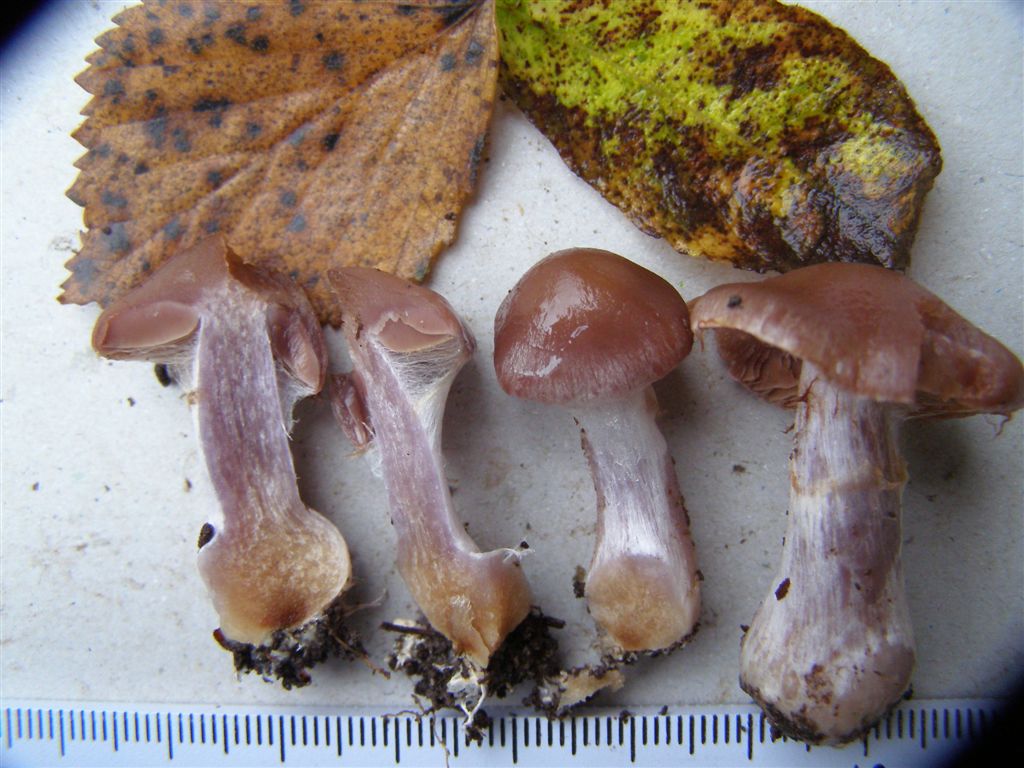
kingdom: Fungi
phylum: Basidiomycota
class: Agaricomycetes
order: Agaricales
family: Cortinariaceae
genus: Cortinarius
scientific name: Cortinarius saturninus
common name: brunviolet slørhat
